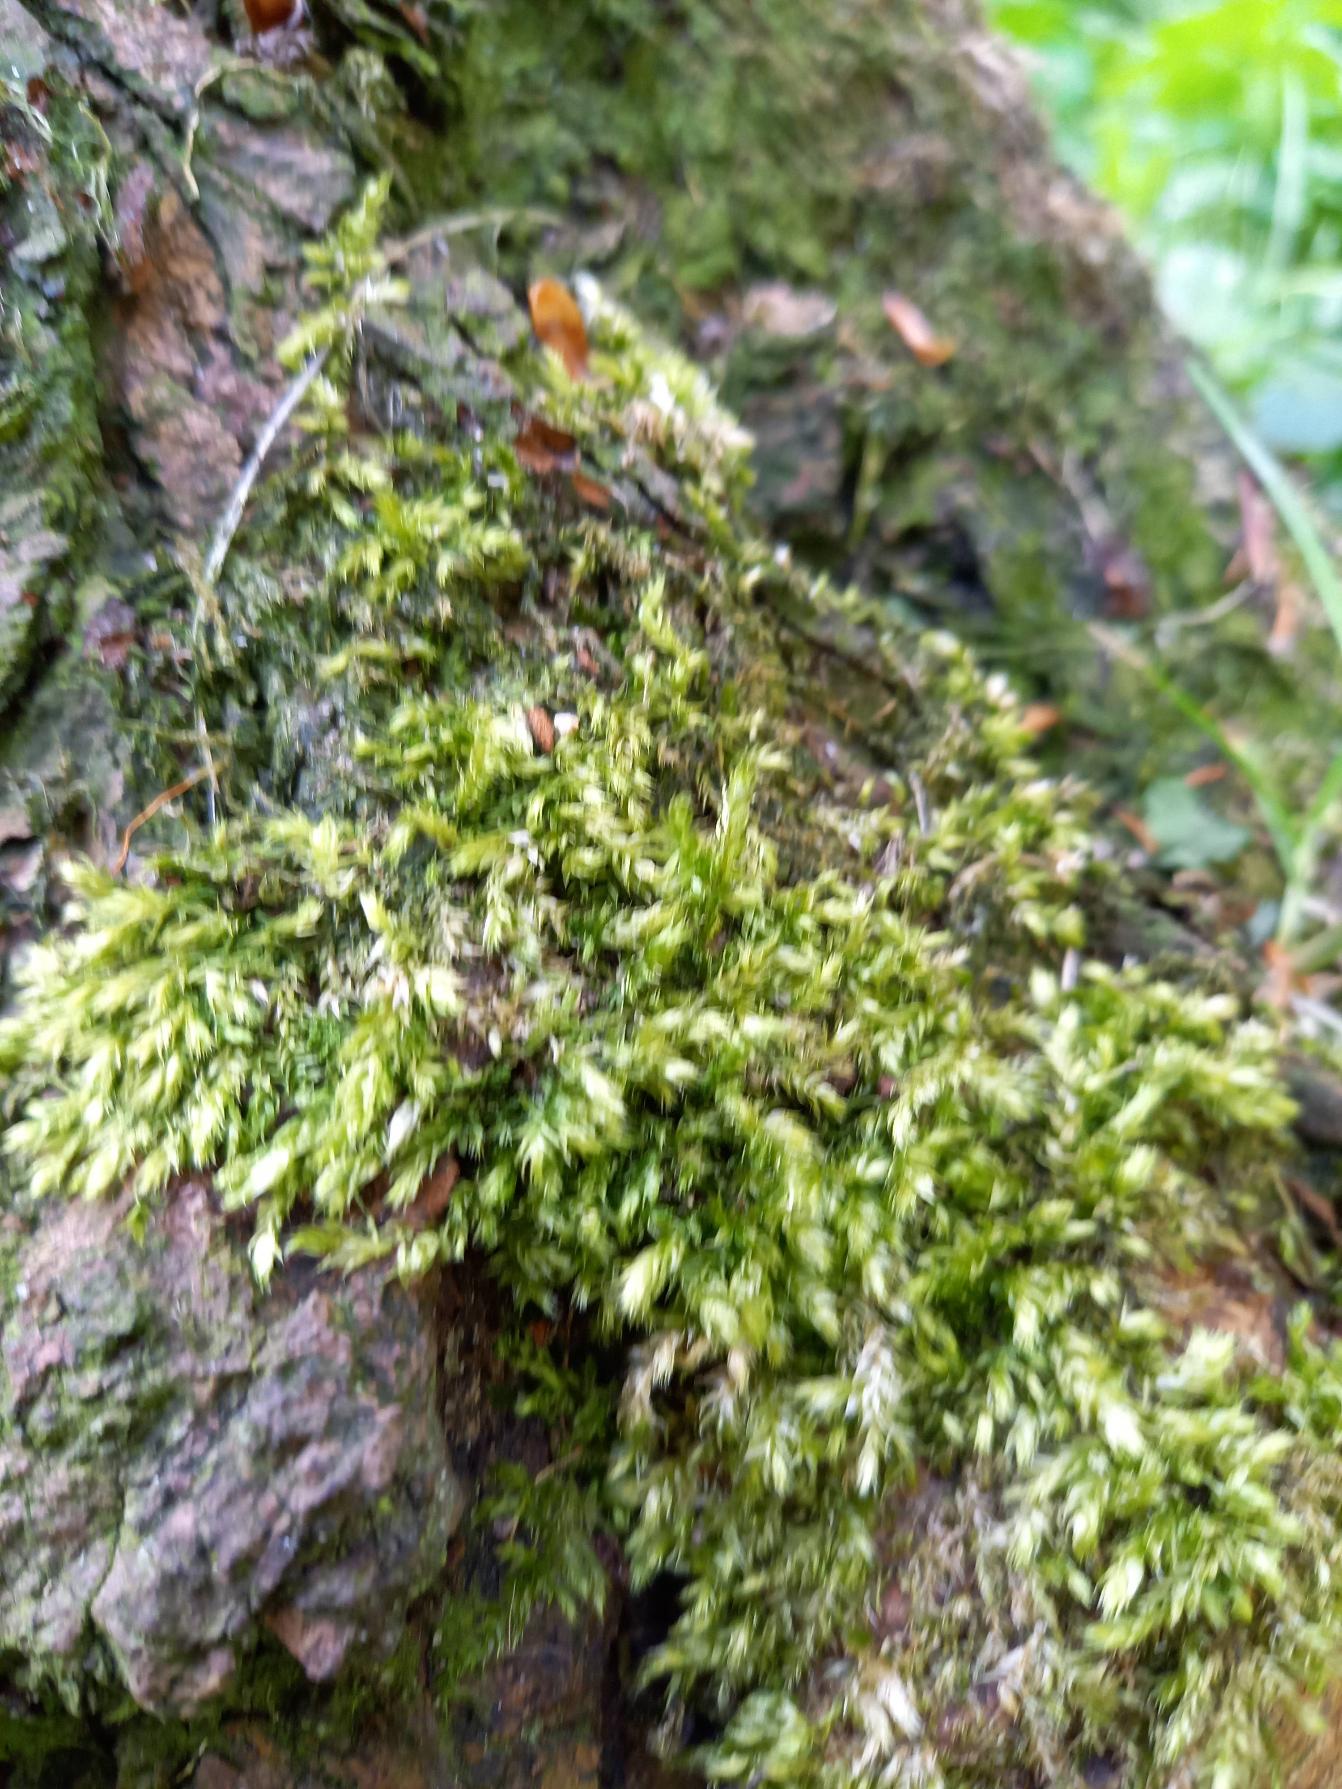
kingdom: Plantae
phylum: Bryophyta
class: Bryopsida
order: Hypnales
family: Brachytheciaceae
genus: Brachythecium
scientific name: Brachythecium rutabulum
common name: Almindelig kortkapsel
